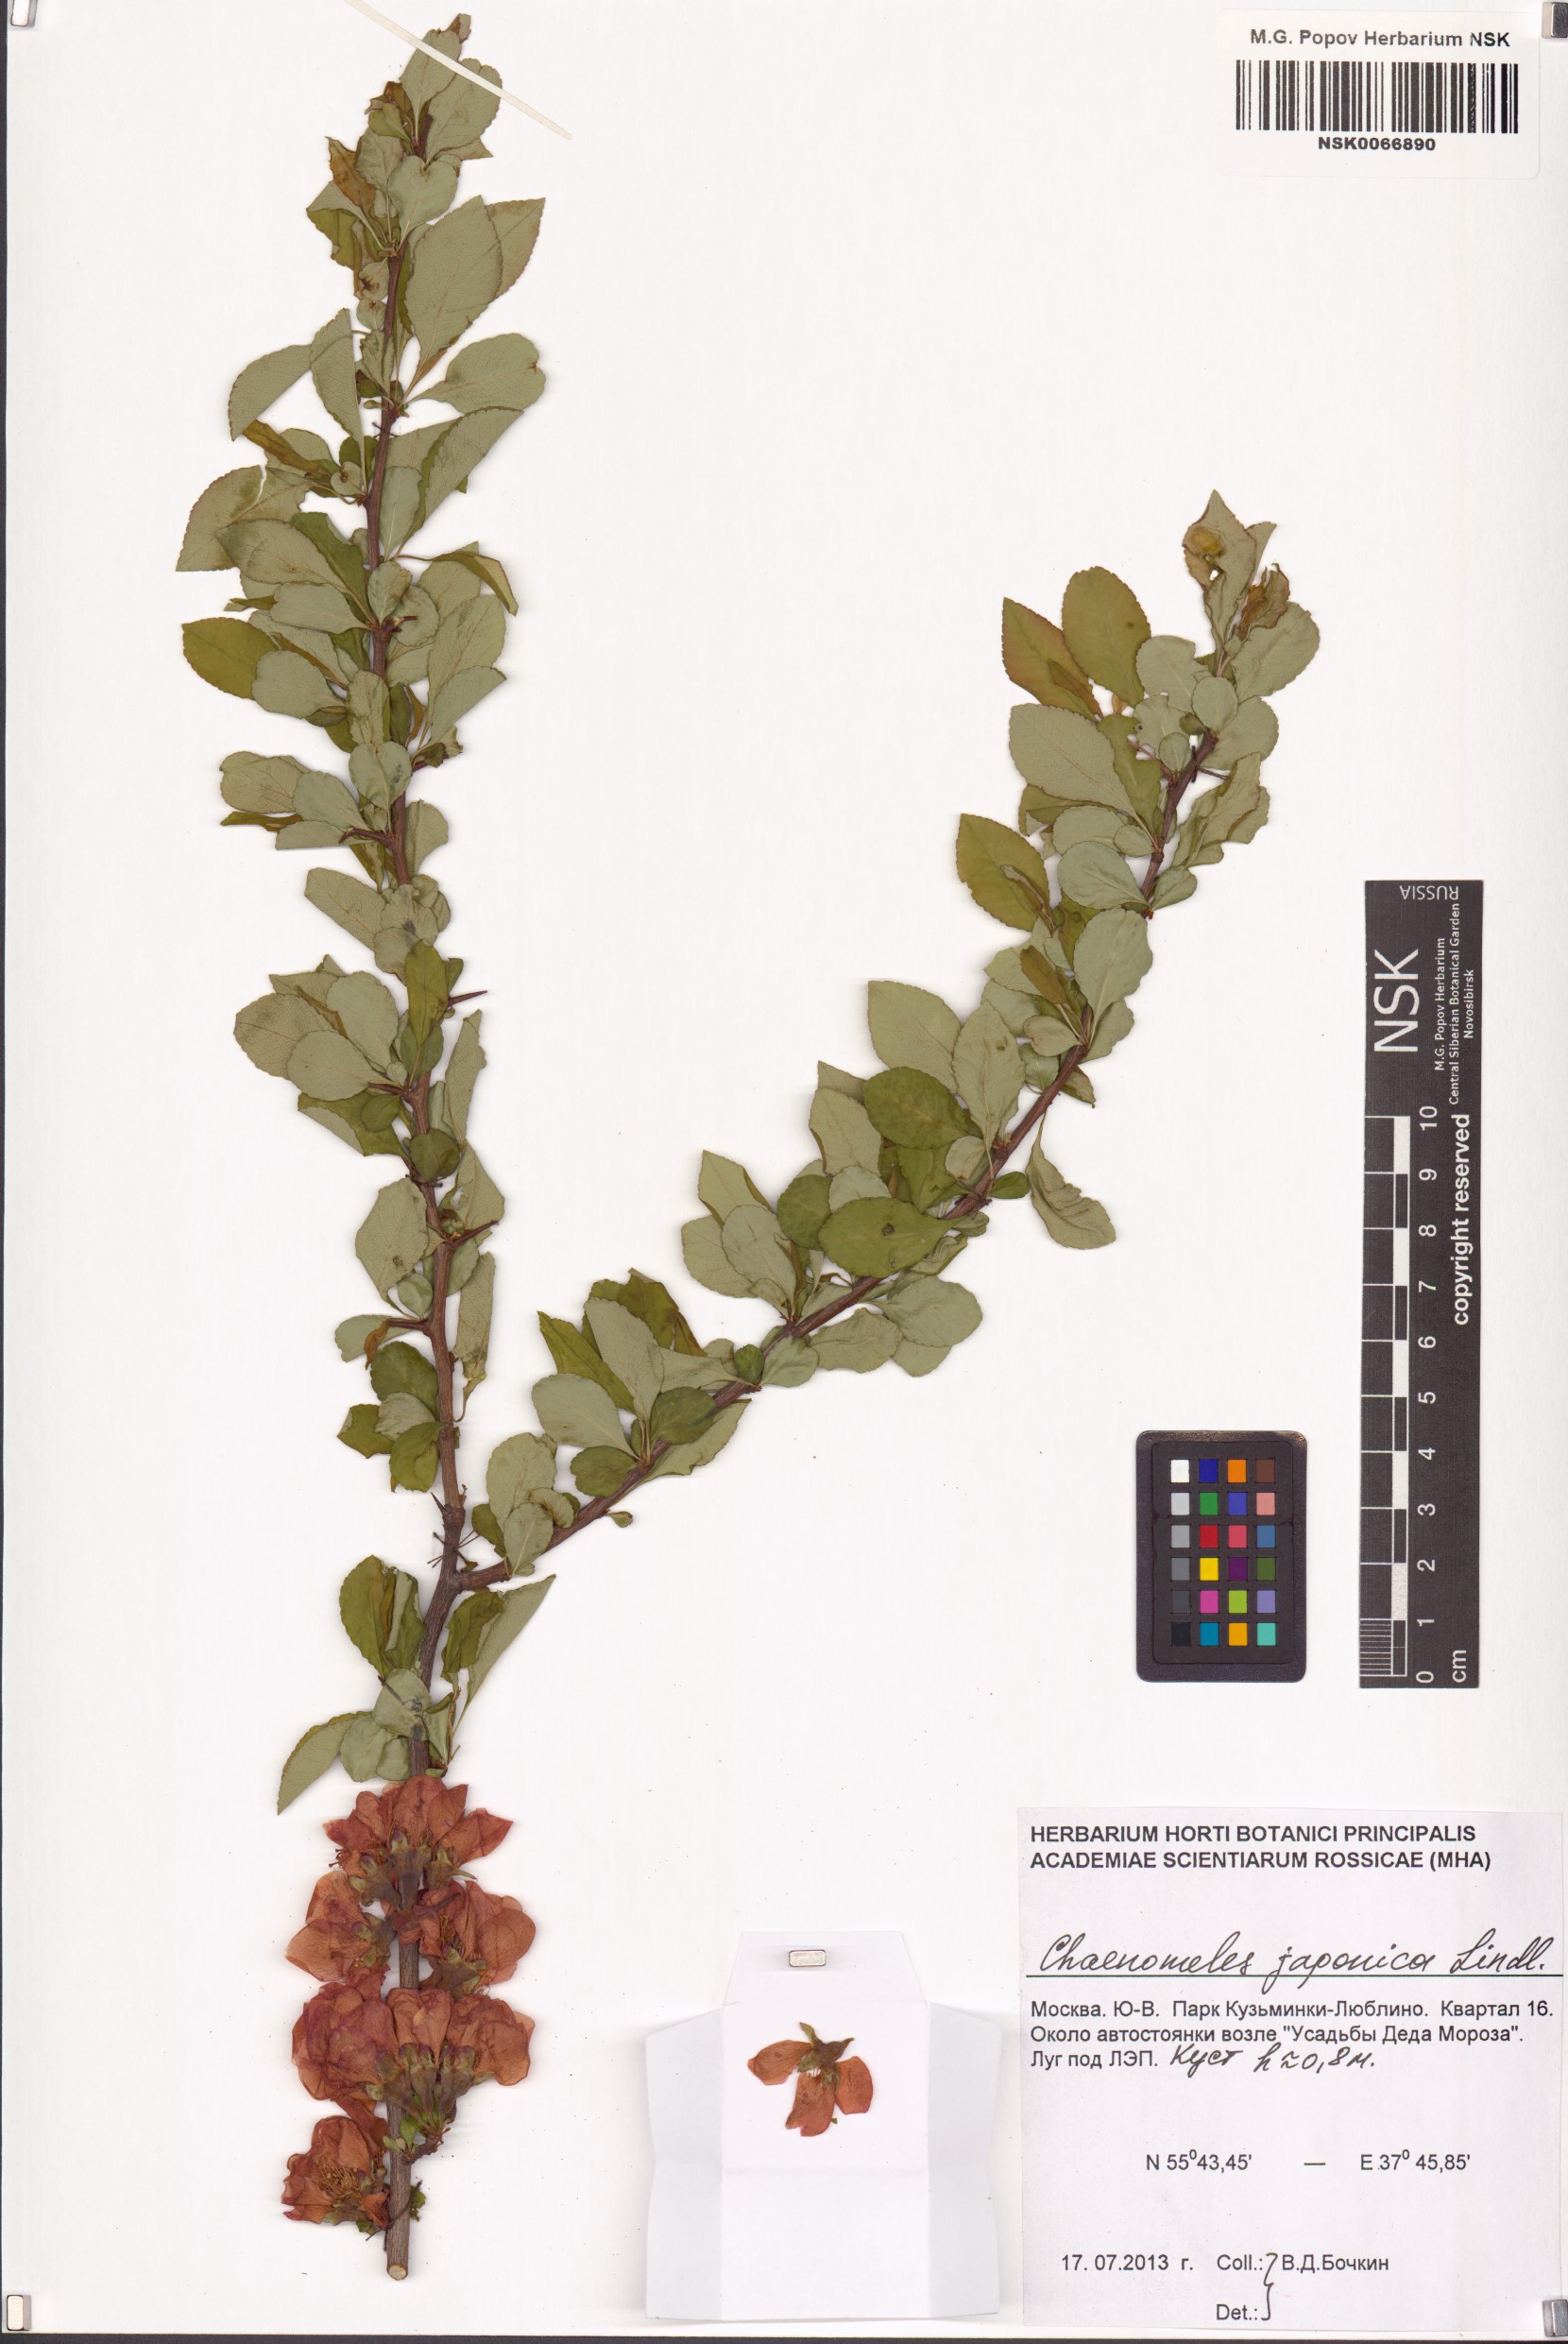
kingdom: Plantae
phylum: Tracheophyta
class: Magnoliopsida
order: Rosales
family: Rosaceae
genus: Chaenomeles
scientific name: Chaenomeles japonica
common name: Japanese quince
